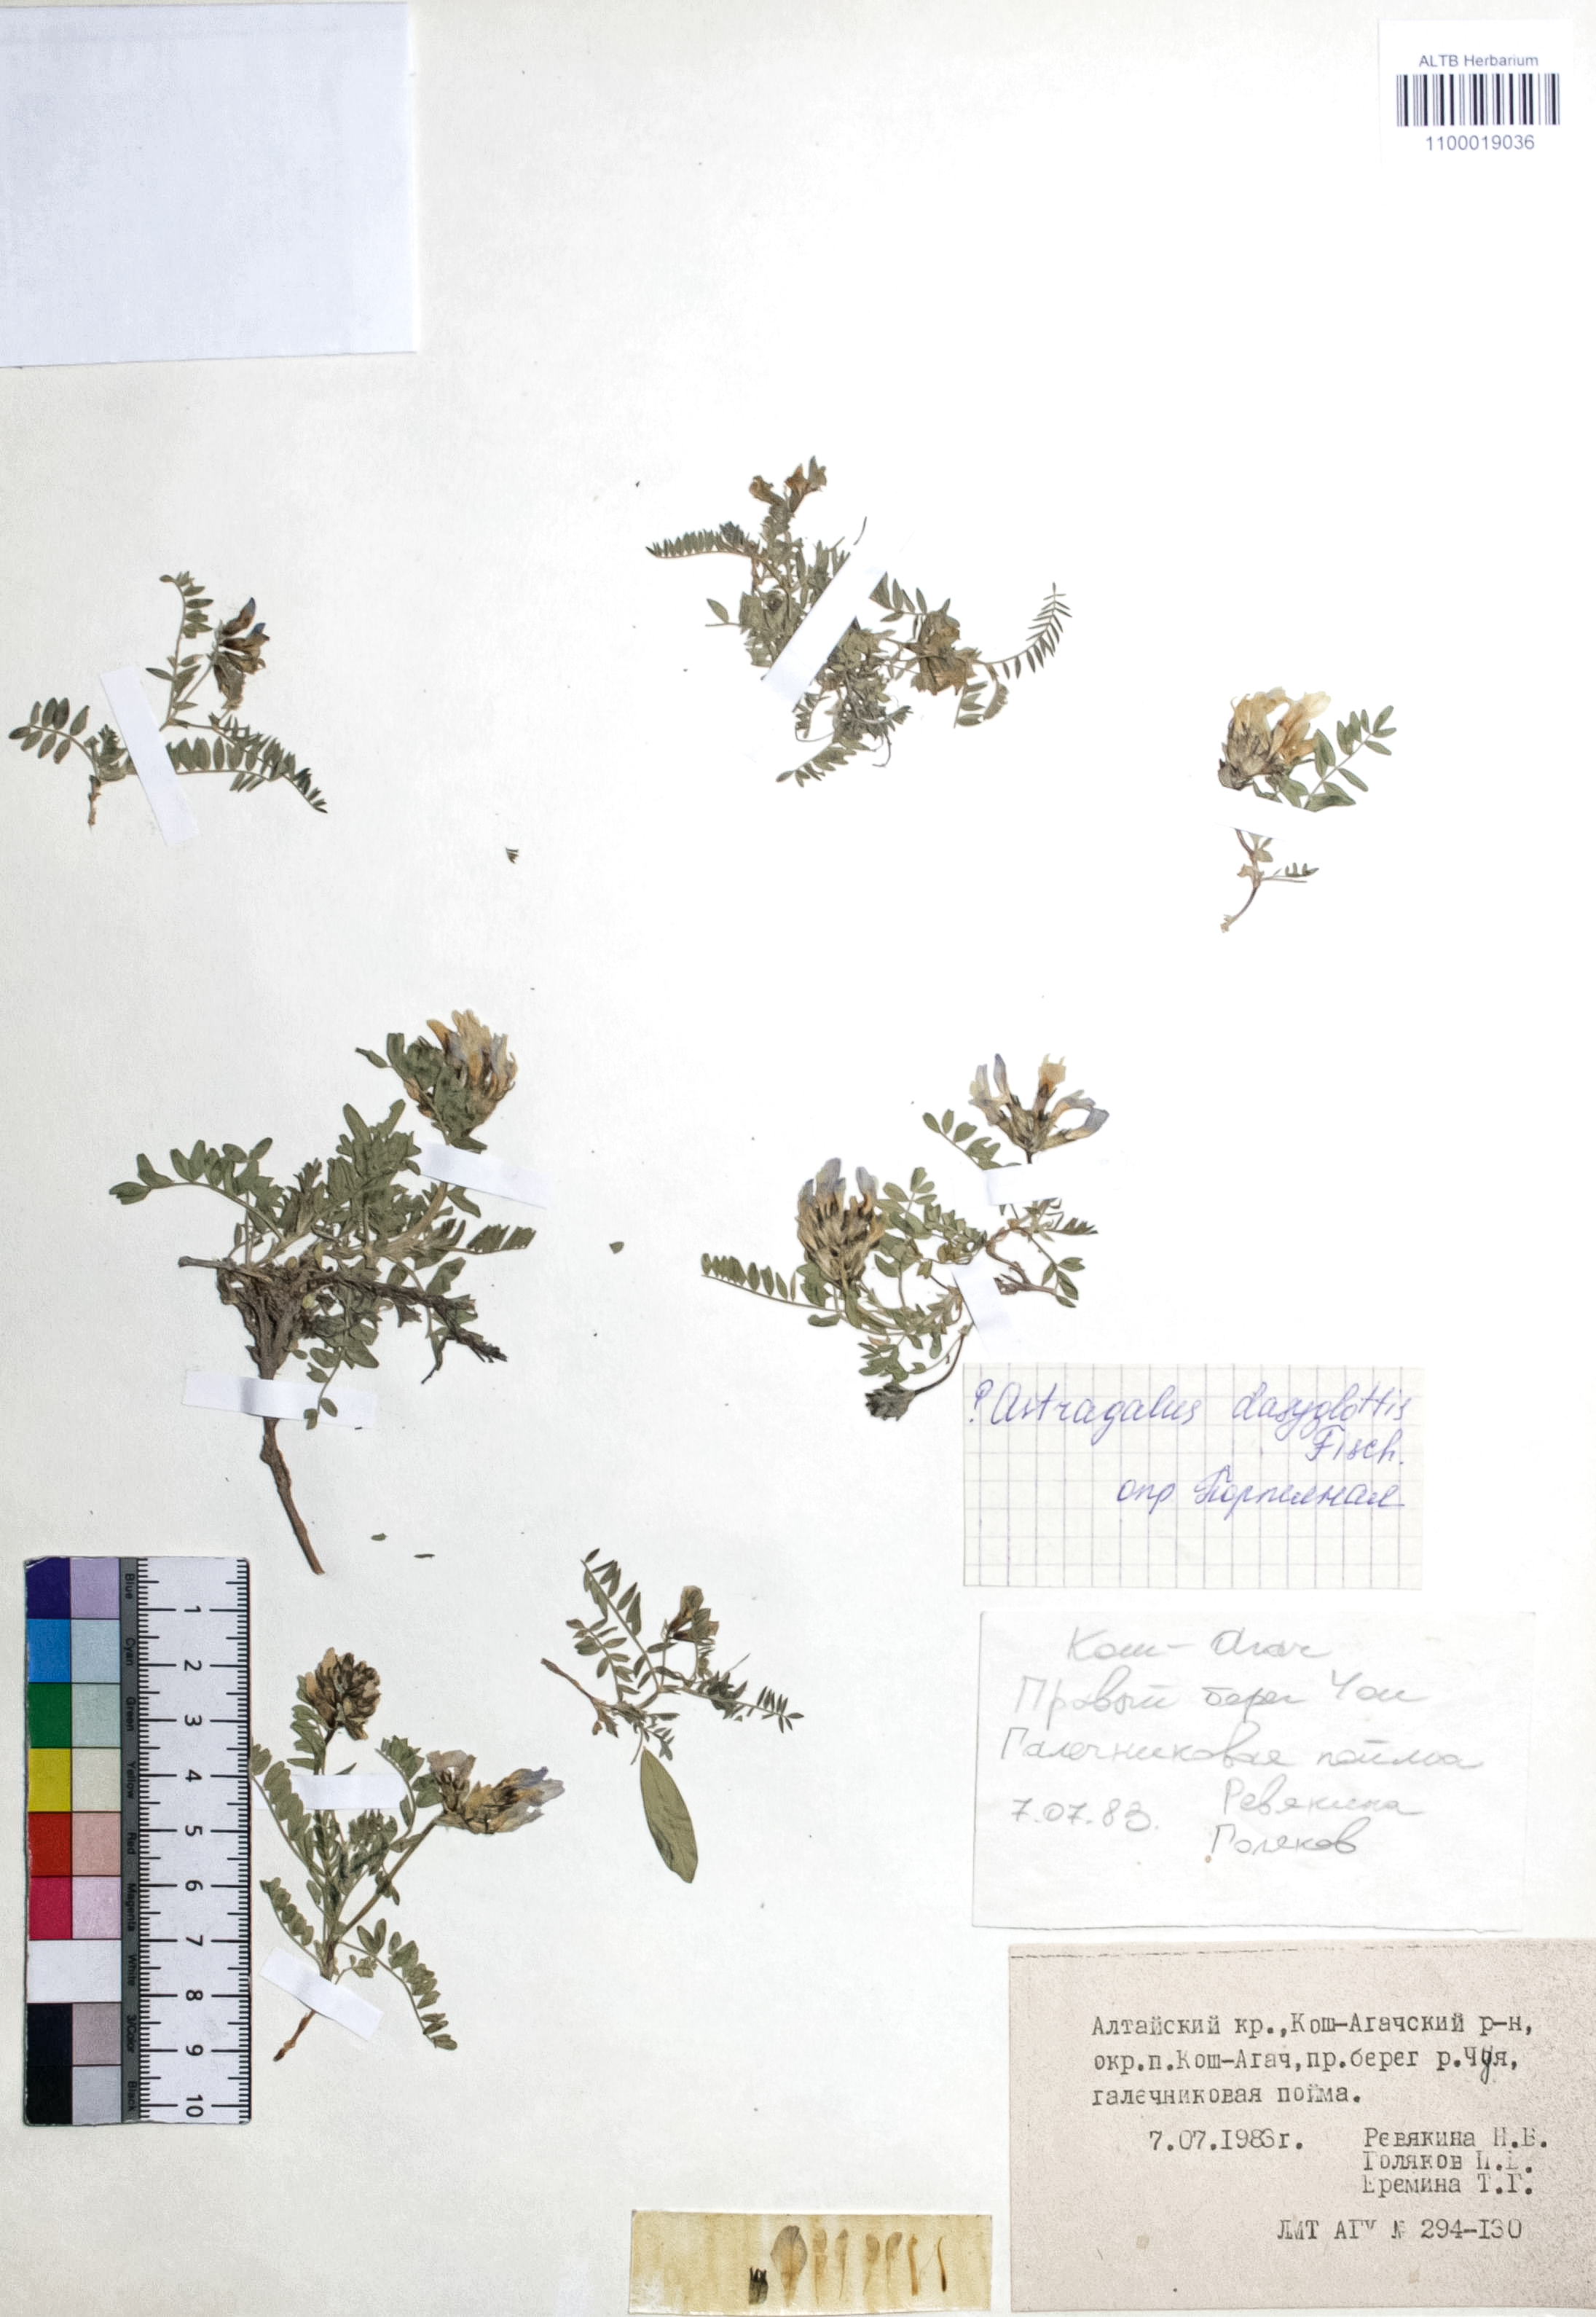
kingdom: Plantae
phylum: Tracheophyta
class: Magnoliopsida
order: Fabales
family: Fabaceae
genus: Astragalus
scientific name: Astragalus agrestis
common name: Field milk-vetch
